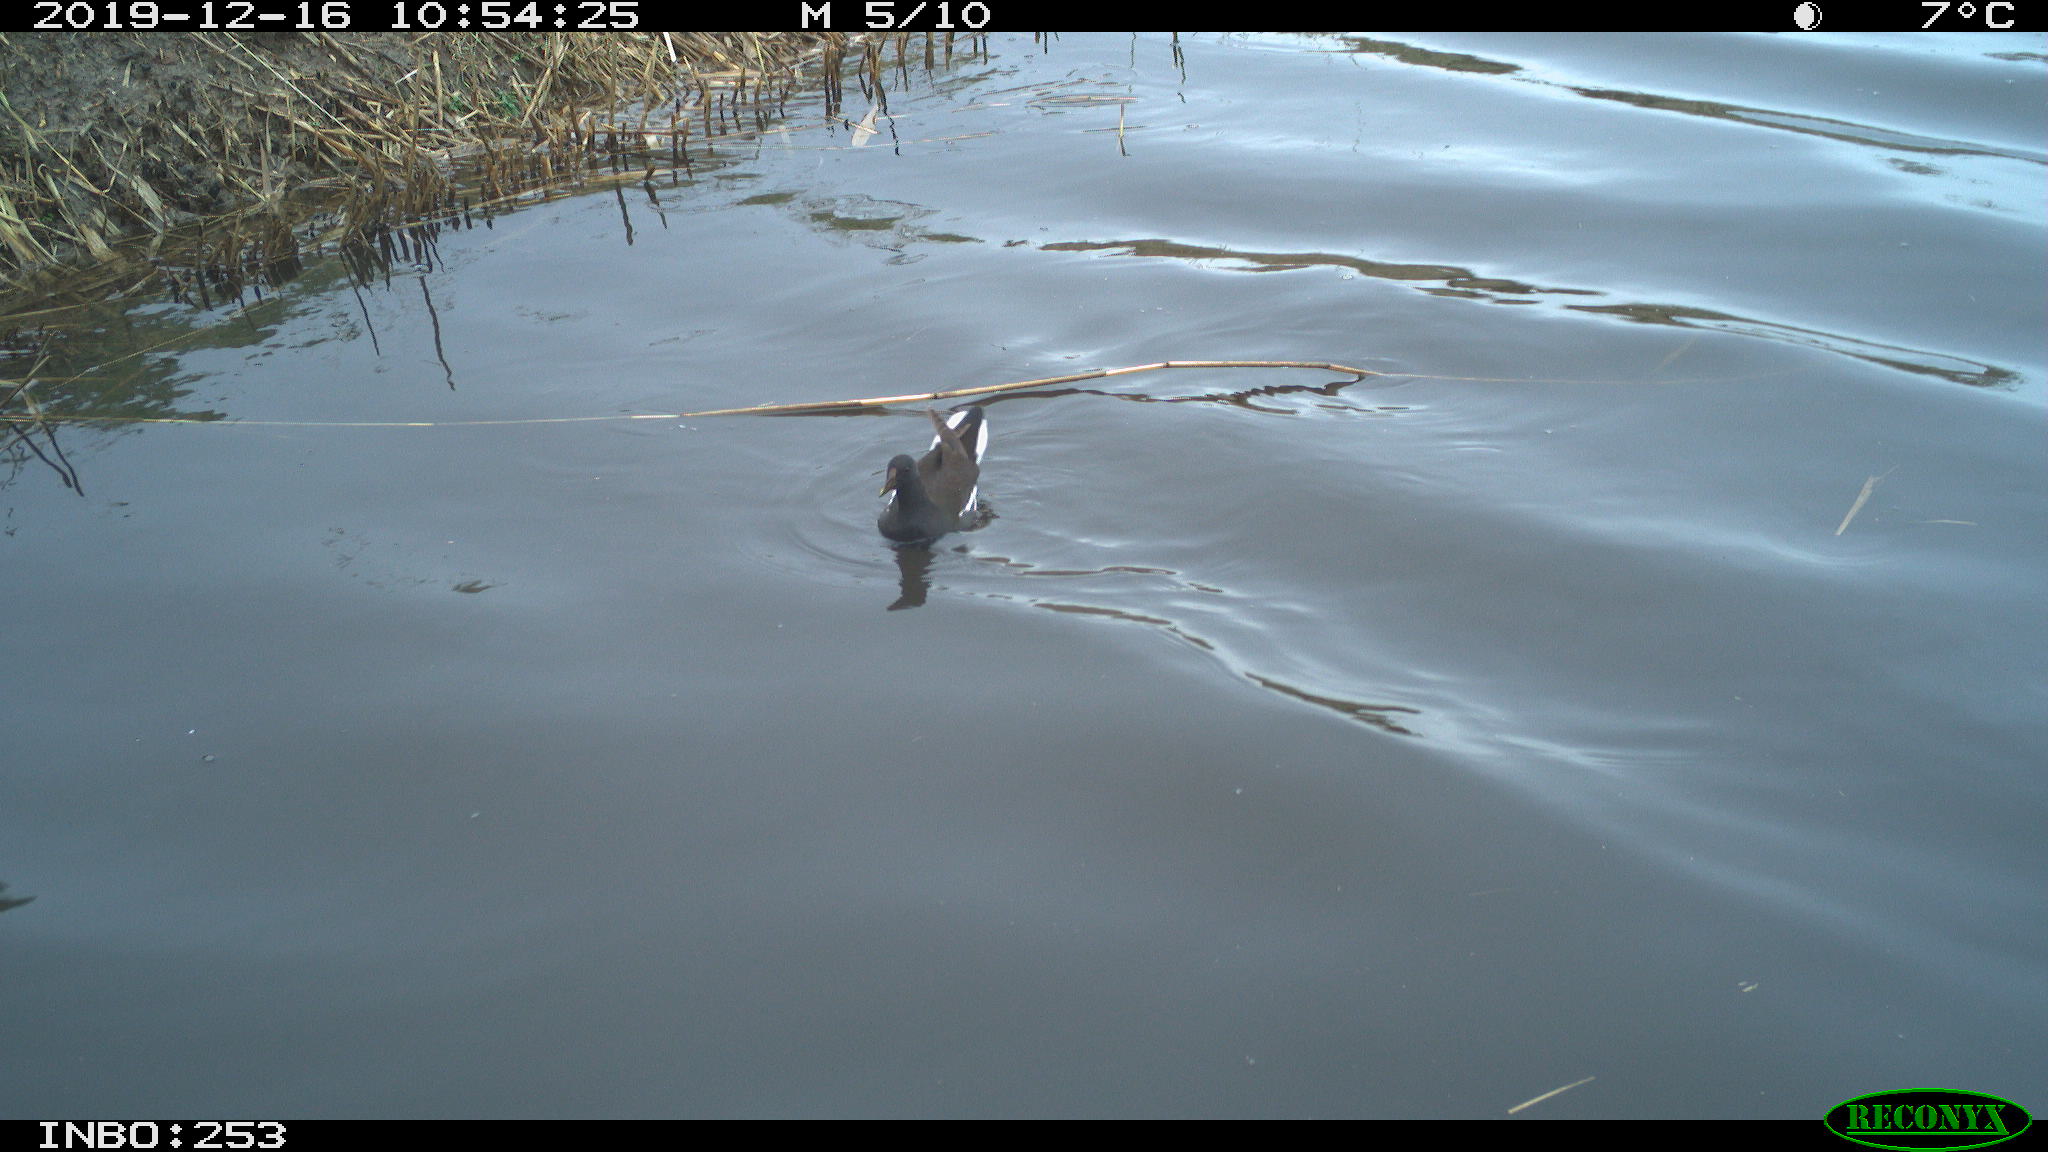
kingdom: Animalia
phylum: Chordata
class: Aves
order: Gruiformes
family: Rallidae
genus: Gallinula
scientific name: Gallinula chloropus
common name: Common moorhen
